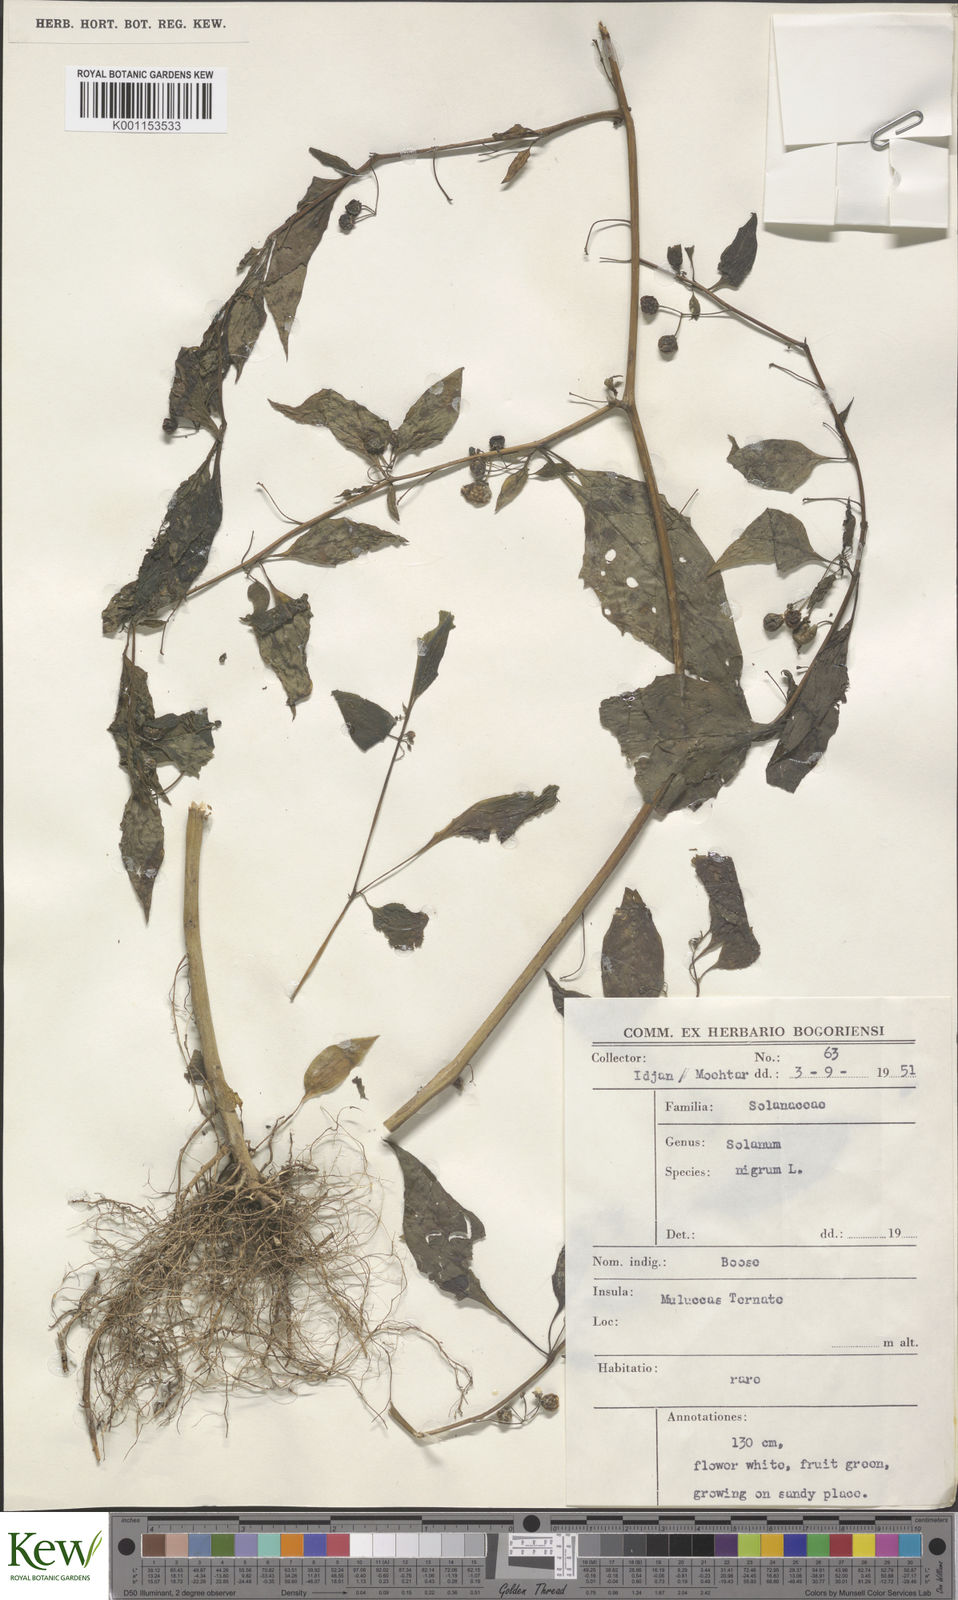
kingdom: Plantae
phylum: Tracheophyta
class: Magnoliopsida
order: Solanales
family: Solanaceae
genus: Solanum
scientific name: Solanum americanum
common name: American black nightshade
